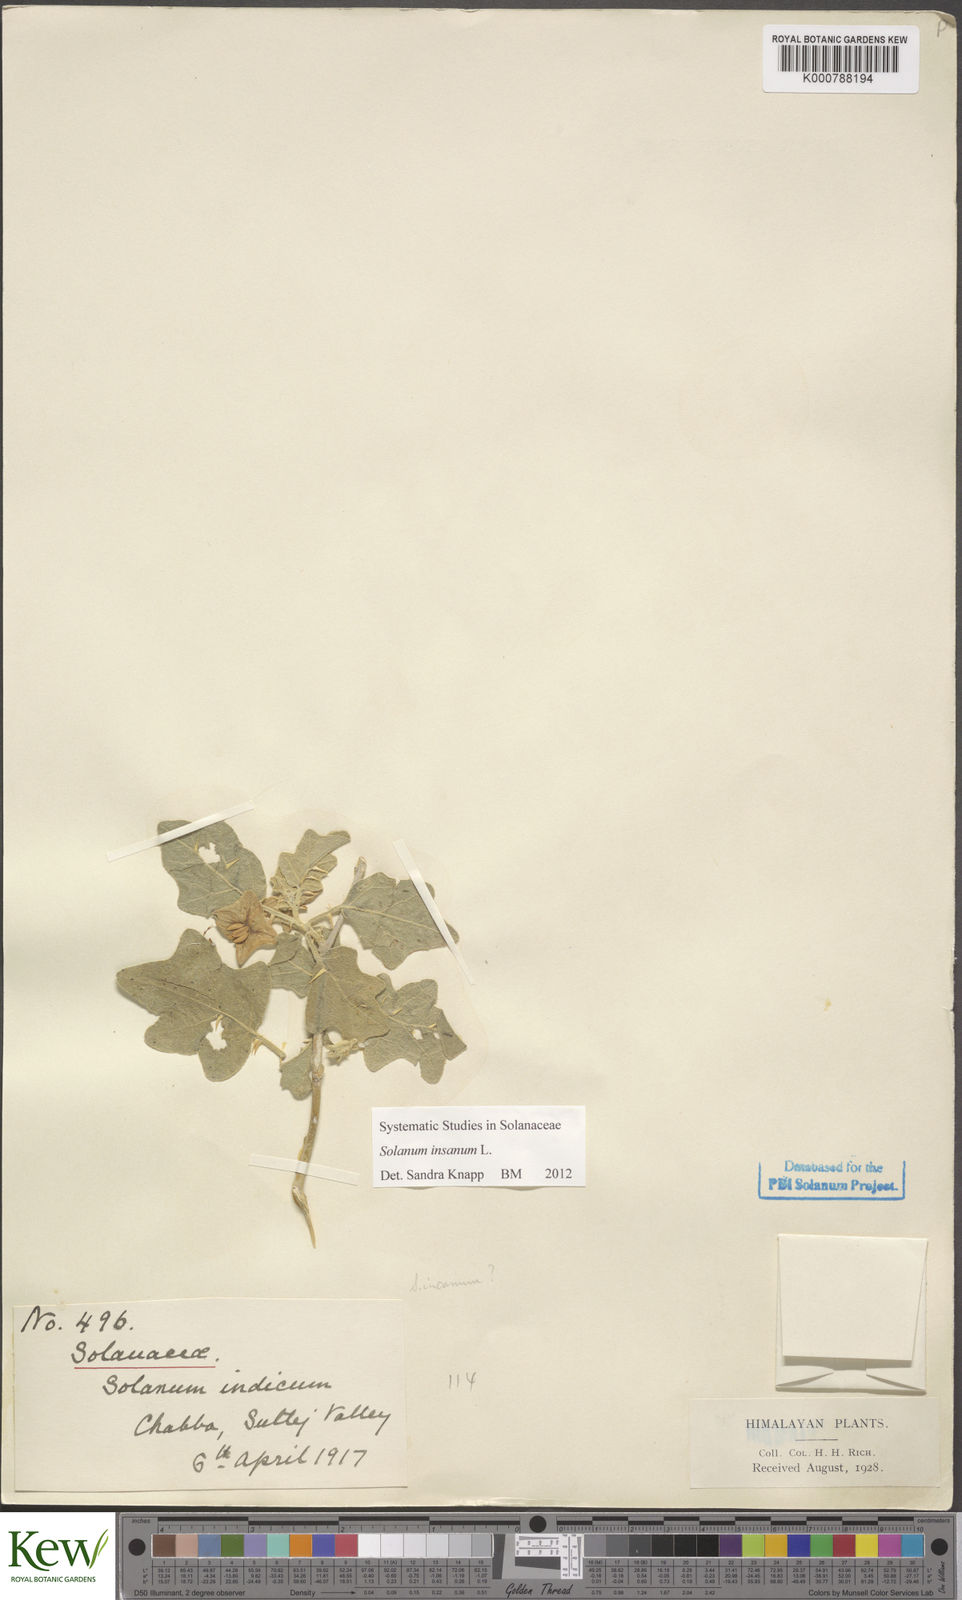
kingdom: Plantae
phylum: Tracheophyta
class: Magnoliopsida
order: Solanales
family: Solanaceae
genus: Solanum
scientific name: Solanum insanum
